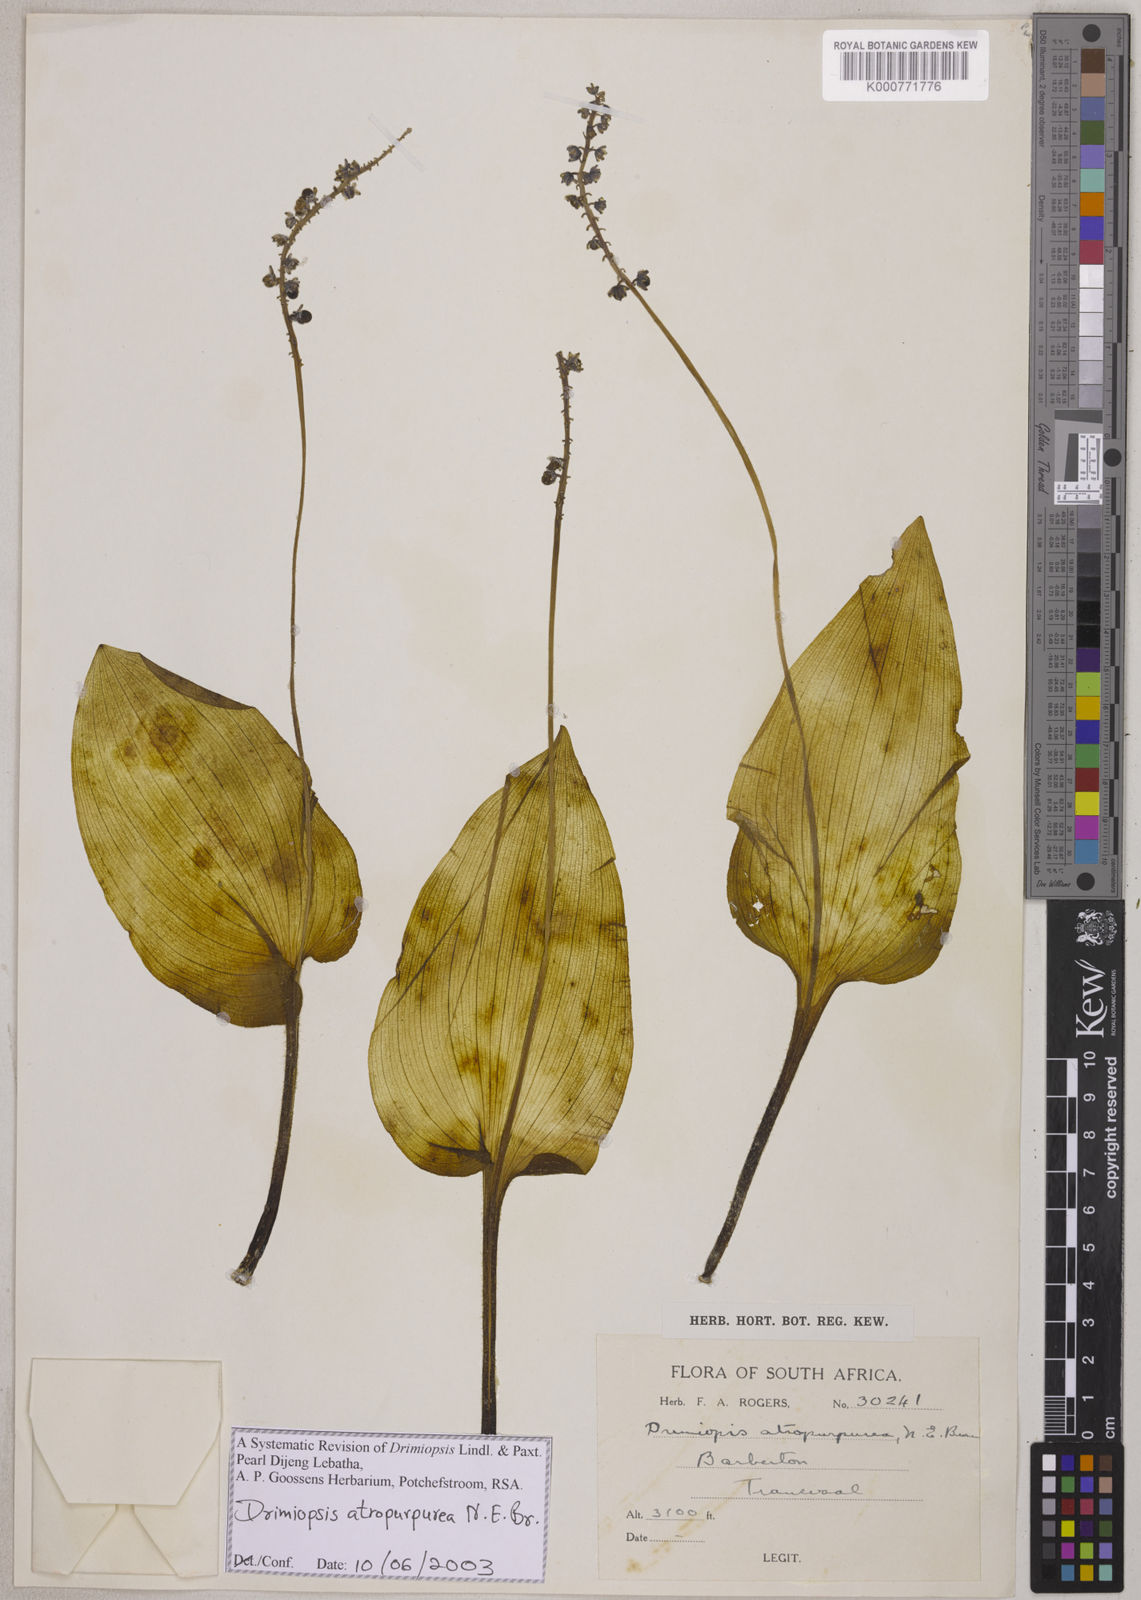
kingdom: Plantae
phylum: Tracheophyta
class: Liliopsida
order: Asparagales
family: Asparagaceae
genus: Drimiopsis
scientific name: Drimiopsis atropurpurea
